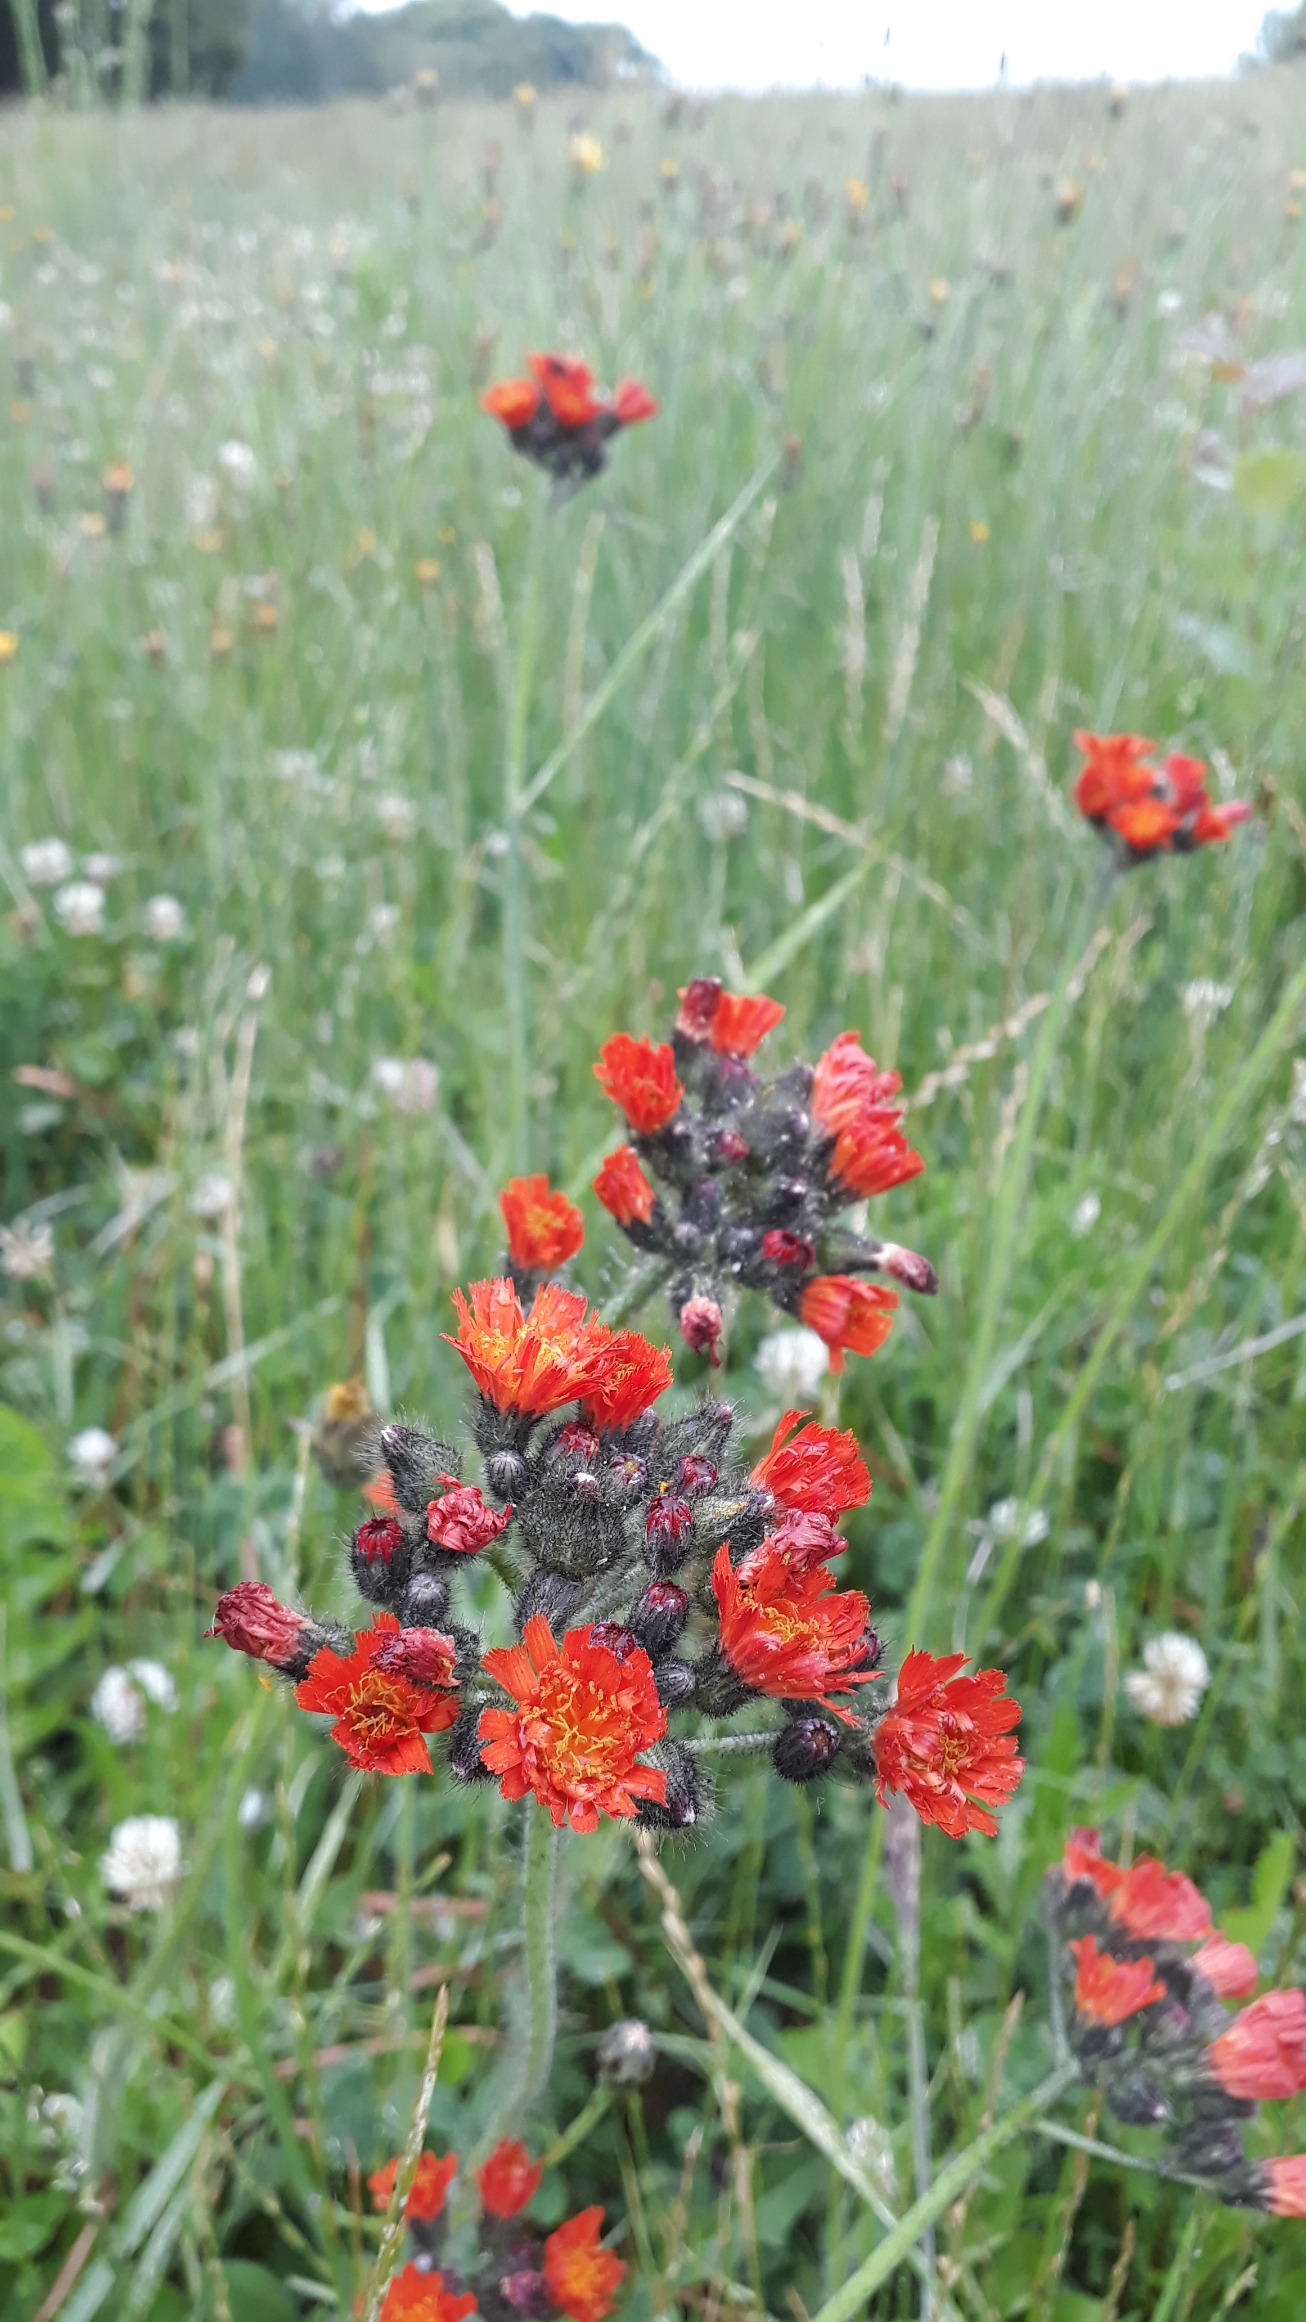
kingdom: Plantae
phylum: Tracheophyta
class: Magnoliopsida
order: Asterales
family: Asteraceae
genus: Pilosella
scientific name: Pilosella aurantiaca
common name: Pomerans-høgeurt
